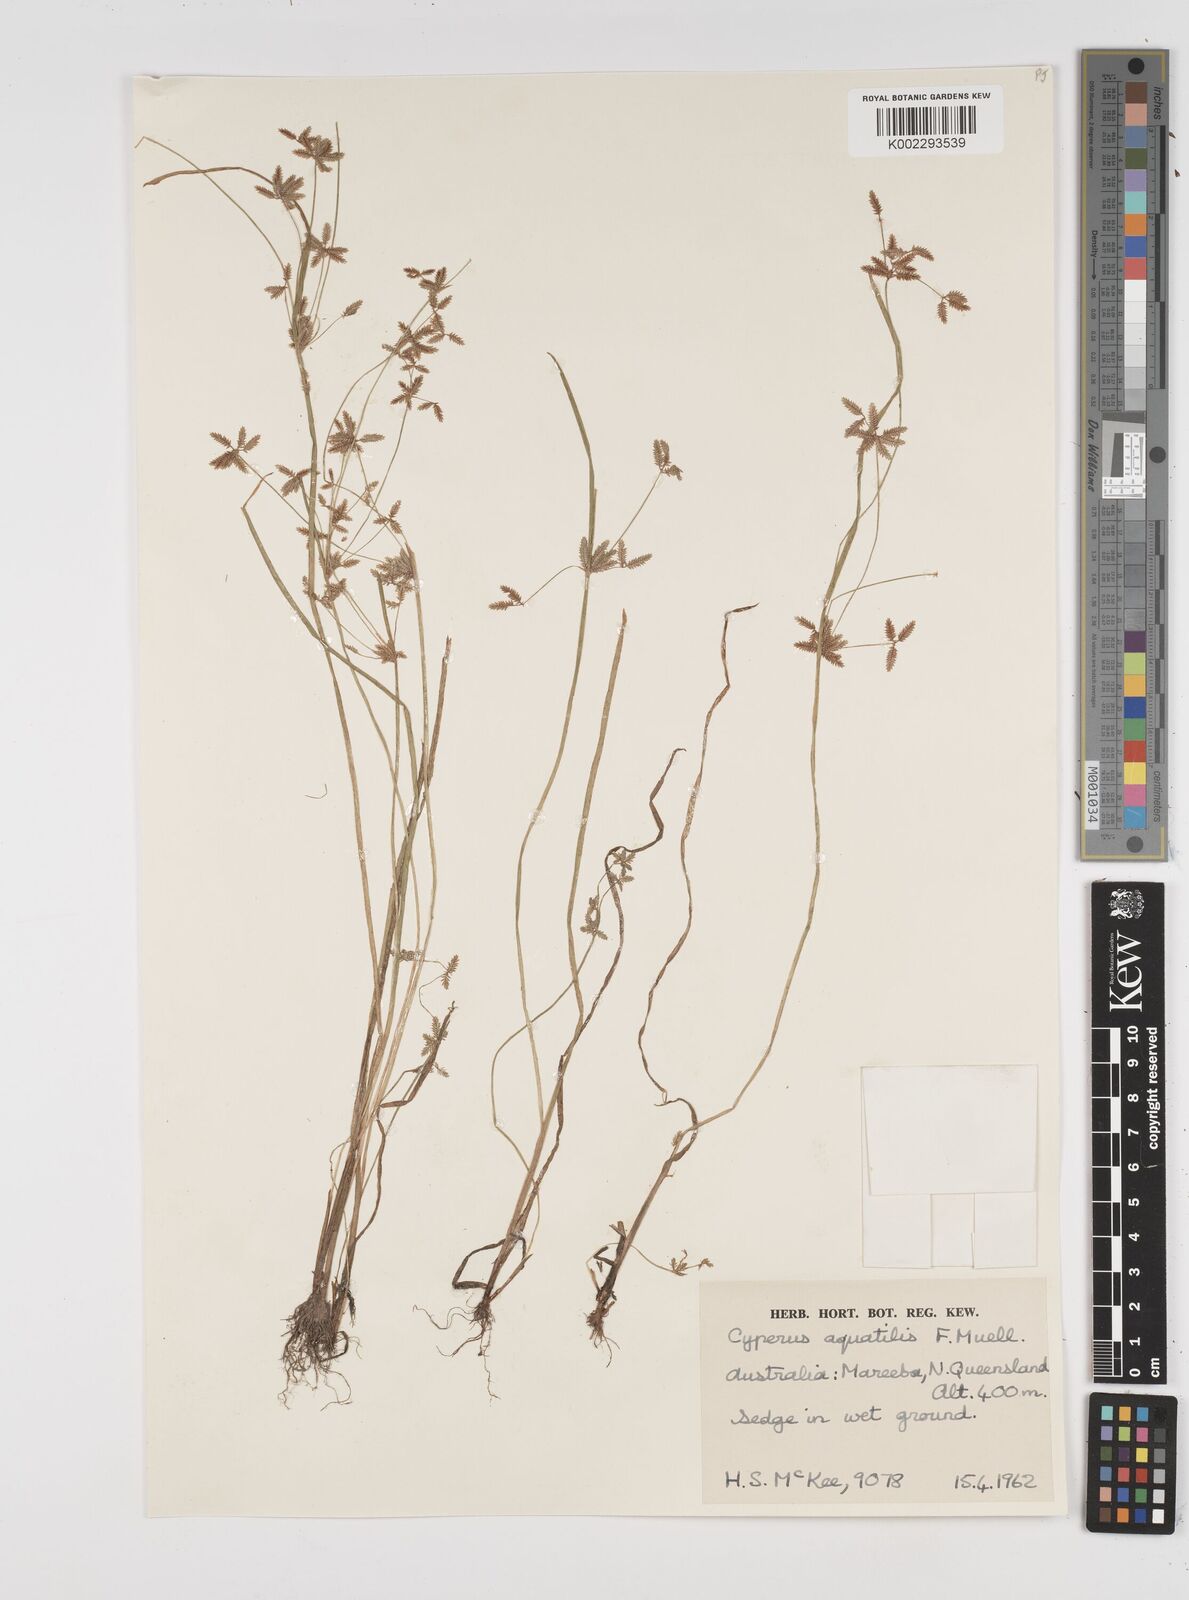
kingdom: Plantae
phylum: Tracheophyta
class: Liliopsida
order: Poales
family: Cyperaceae
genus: Cyperus
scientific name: Cyperus aquatilis
